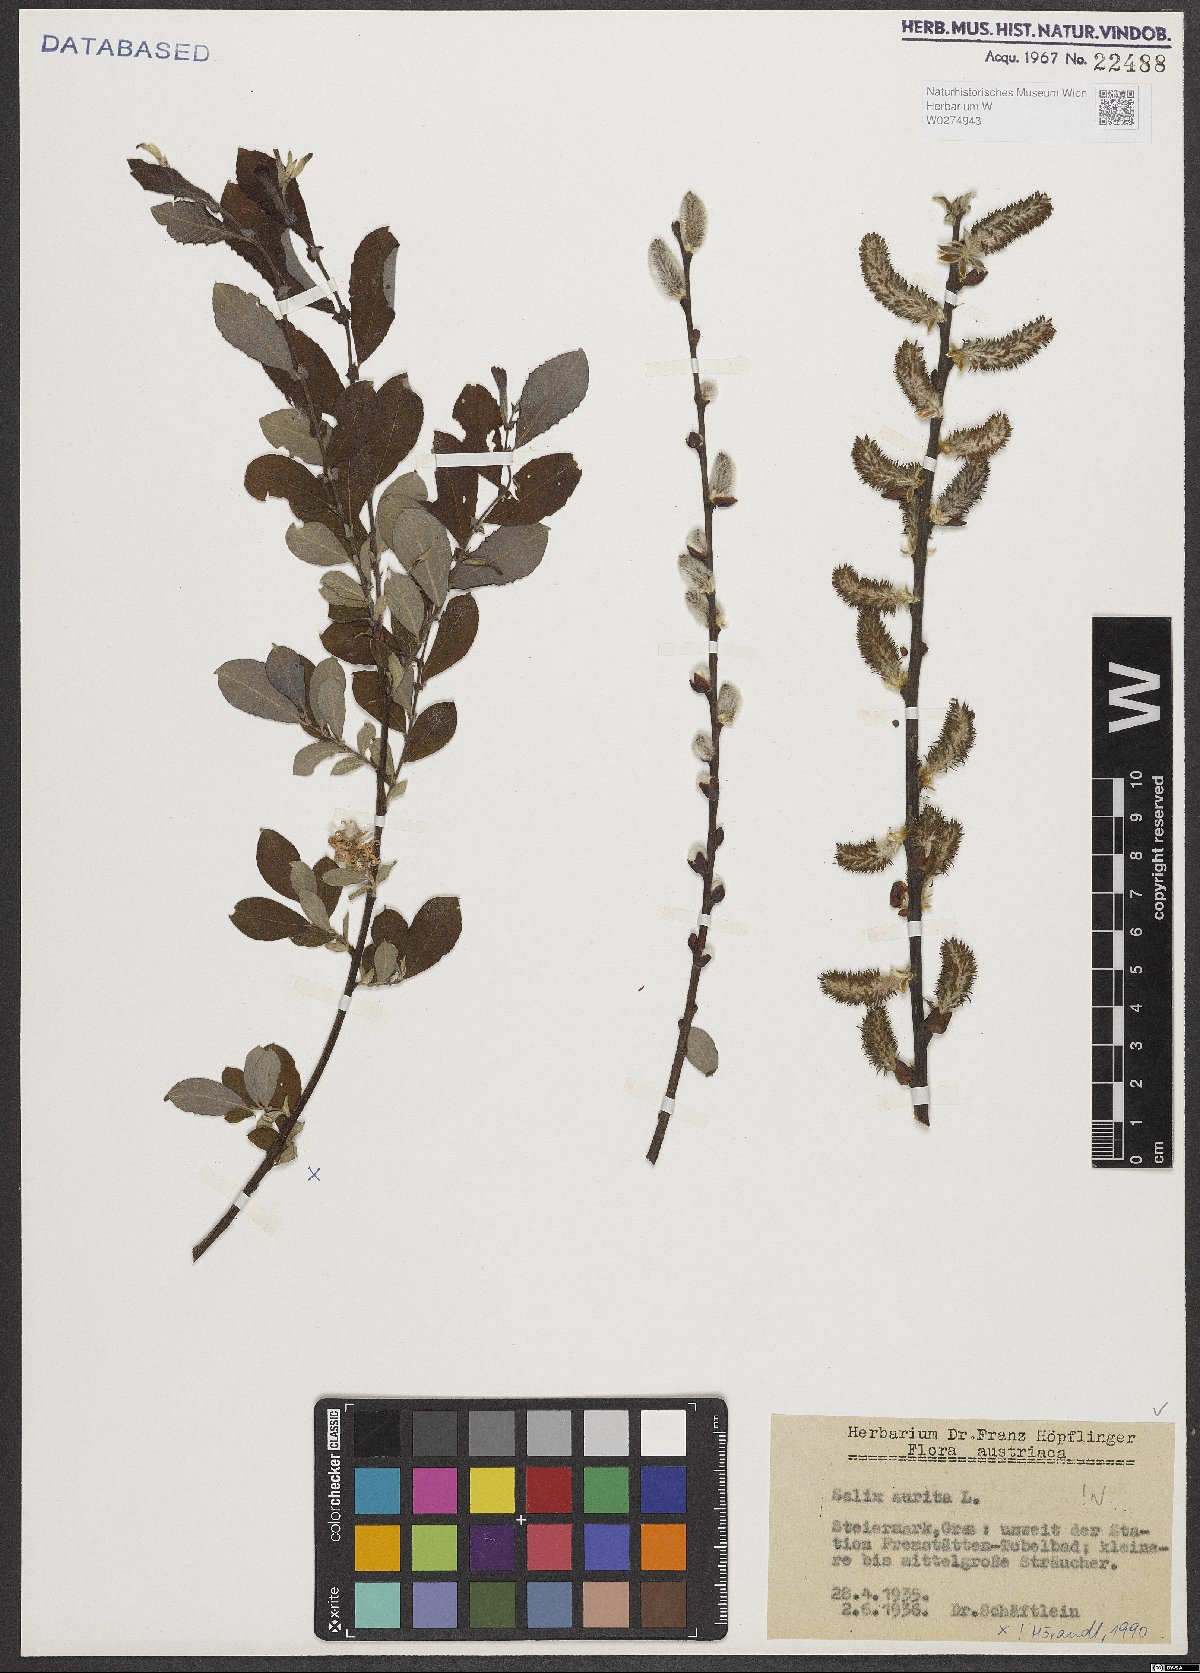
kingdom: Plantae
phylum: Tracheophyta
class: Magnoliopsida
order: Malpighiales
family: Salicaceae
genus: Salix
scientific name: Salix aurita
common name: Eared willow
